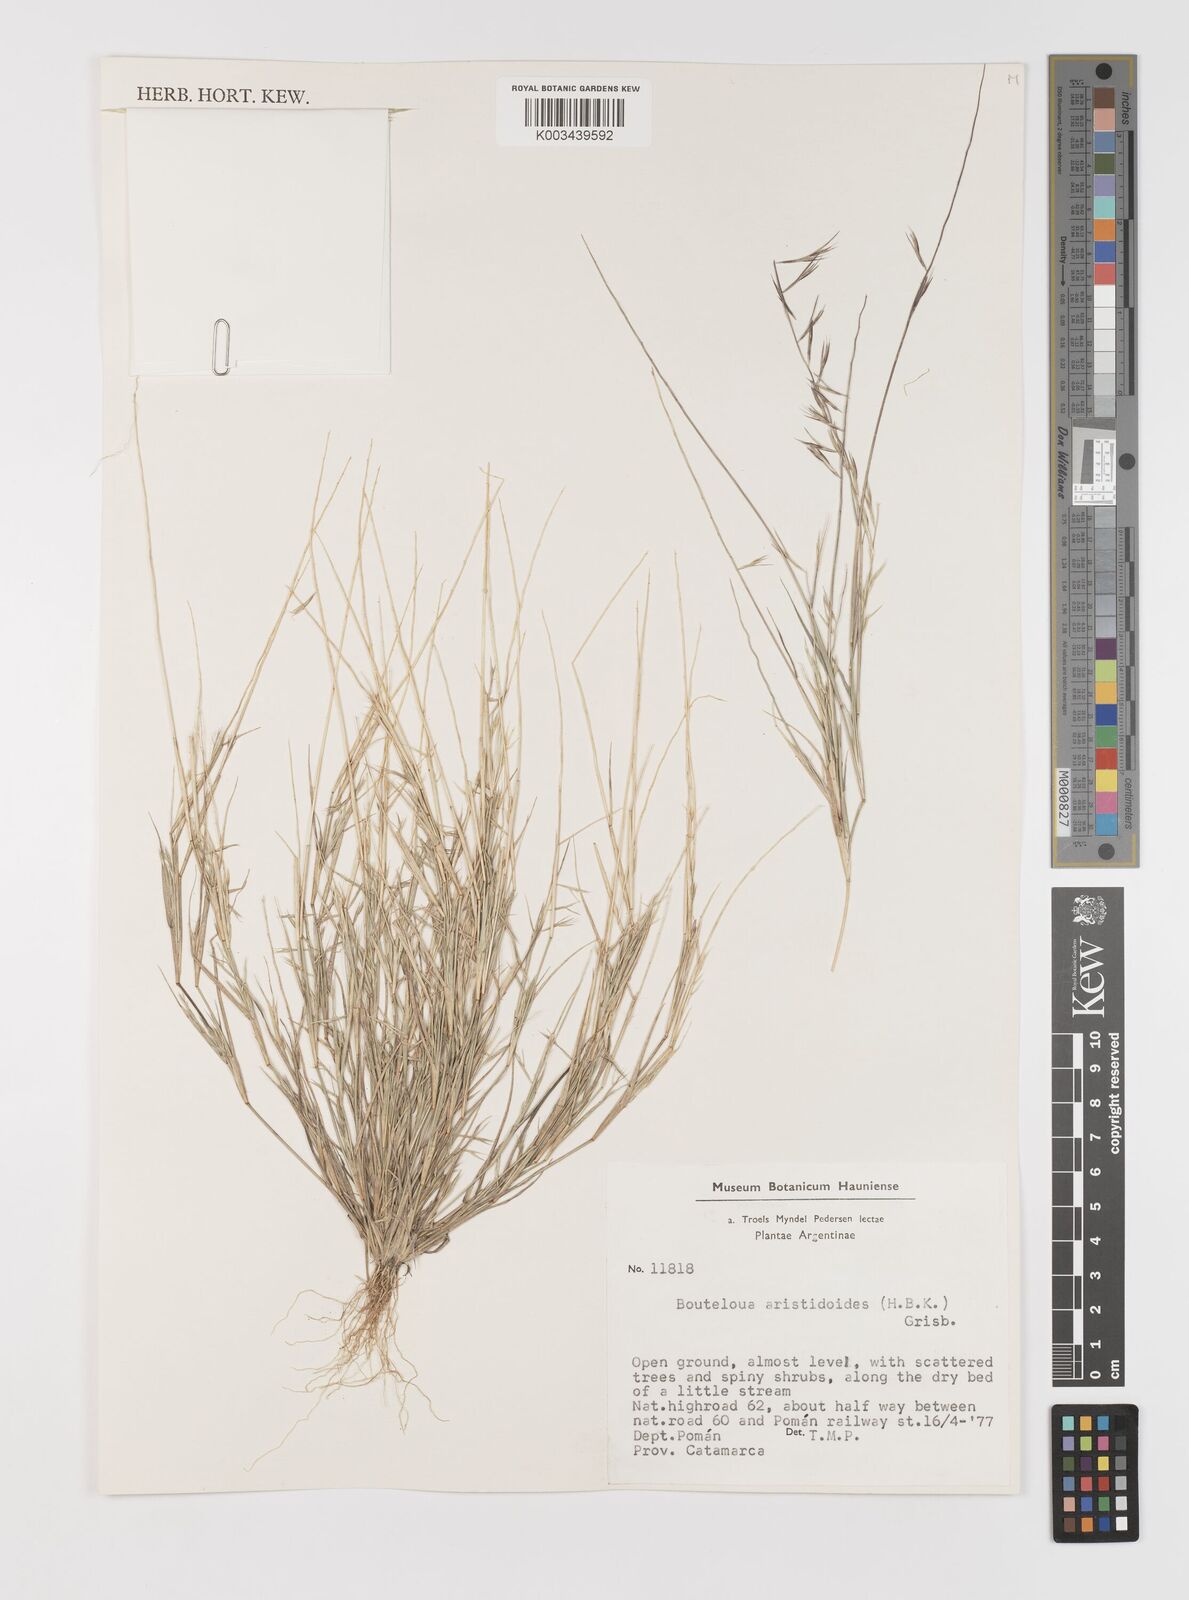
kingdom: Plantae
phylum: Tracheophyta
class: Liliopsida
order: Poales
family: Poaceae
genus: Bouteloua
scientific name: Bouteloua
